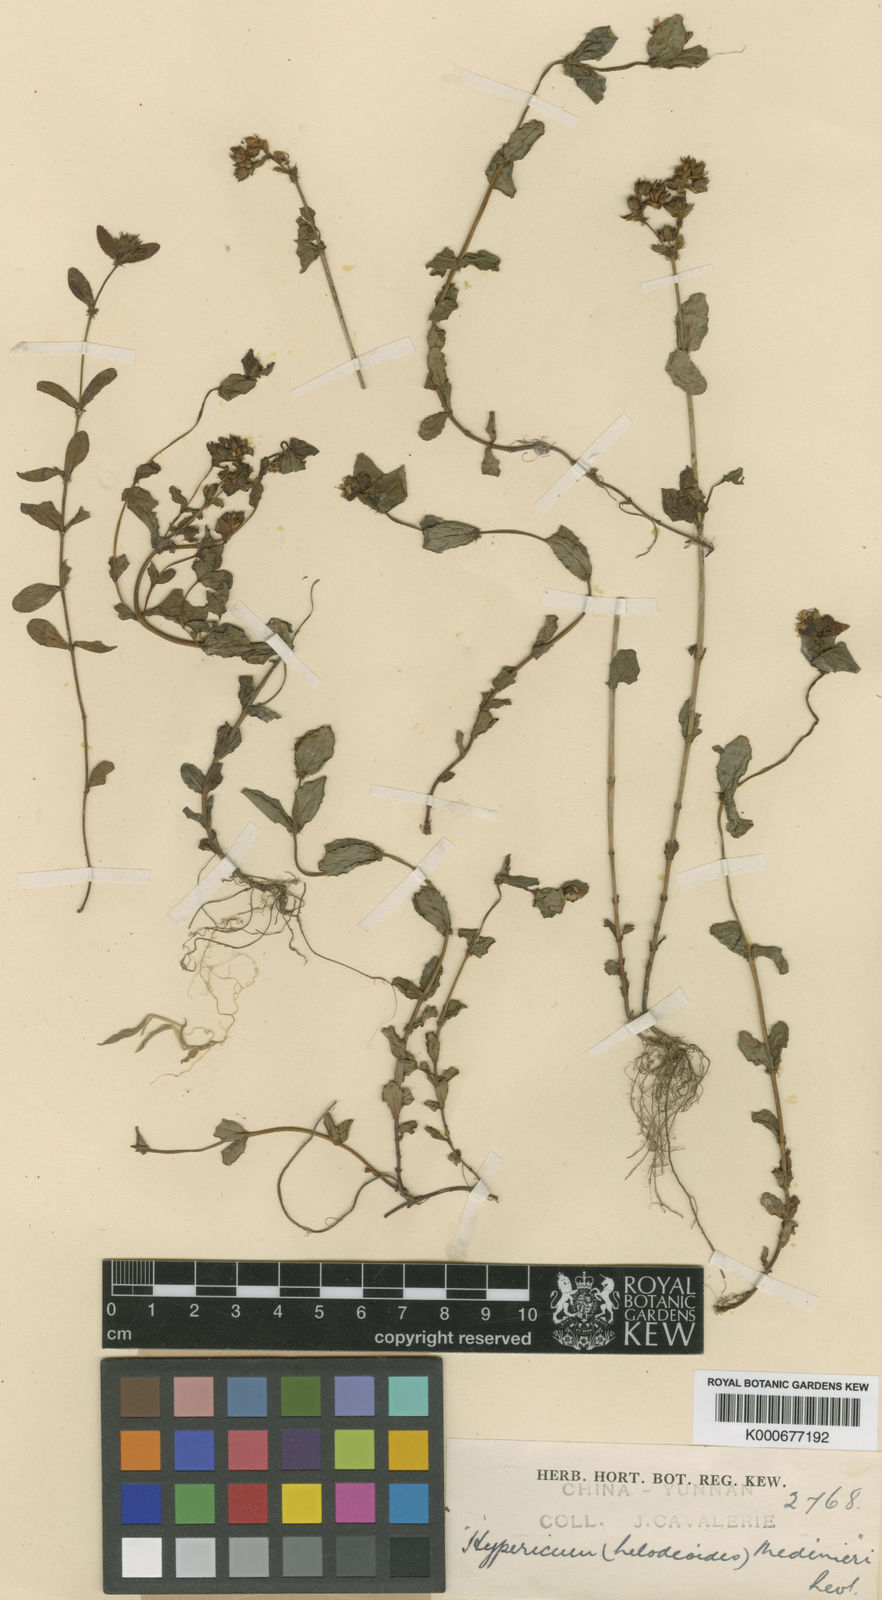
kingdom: Plantae
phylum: Tracheophyta
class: Magnoliopsida
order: Malpighiales
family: Hypericaceae
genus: Hypericum
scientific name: Hypericum wightianum
